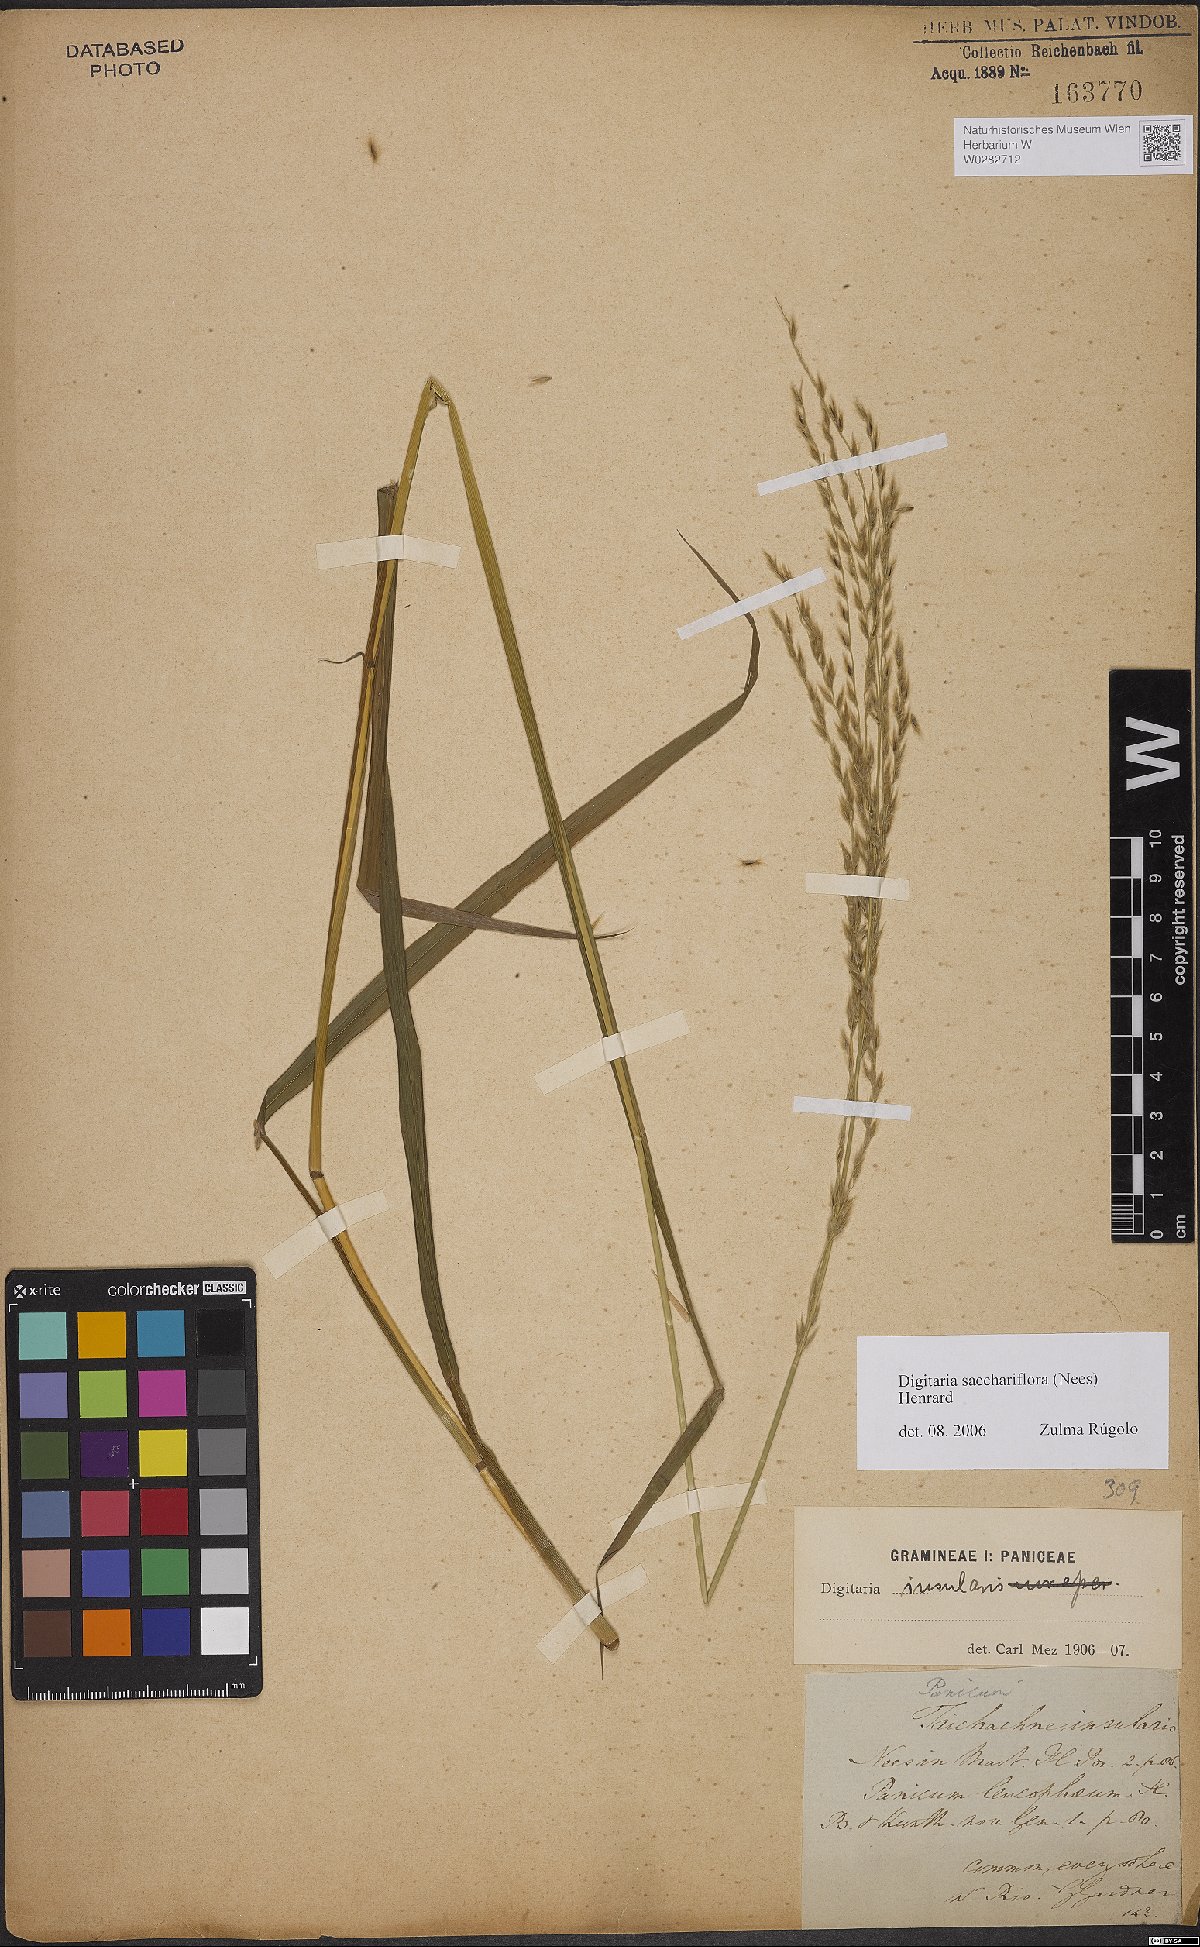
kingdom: Plantae
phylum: Tracheophyta
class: Liliopsida
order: Poales
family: Poaceae
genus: Digitaria
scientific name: Digitaria sacchariflora
